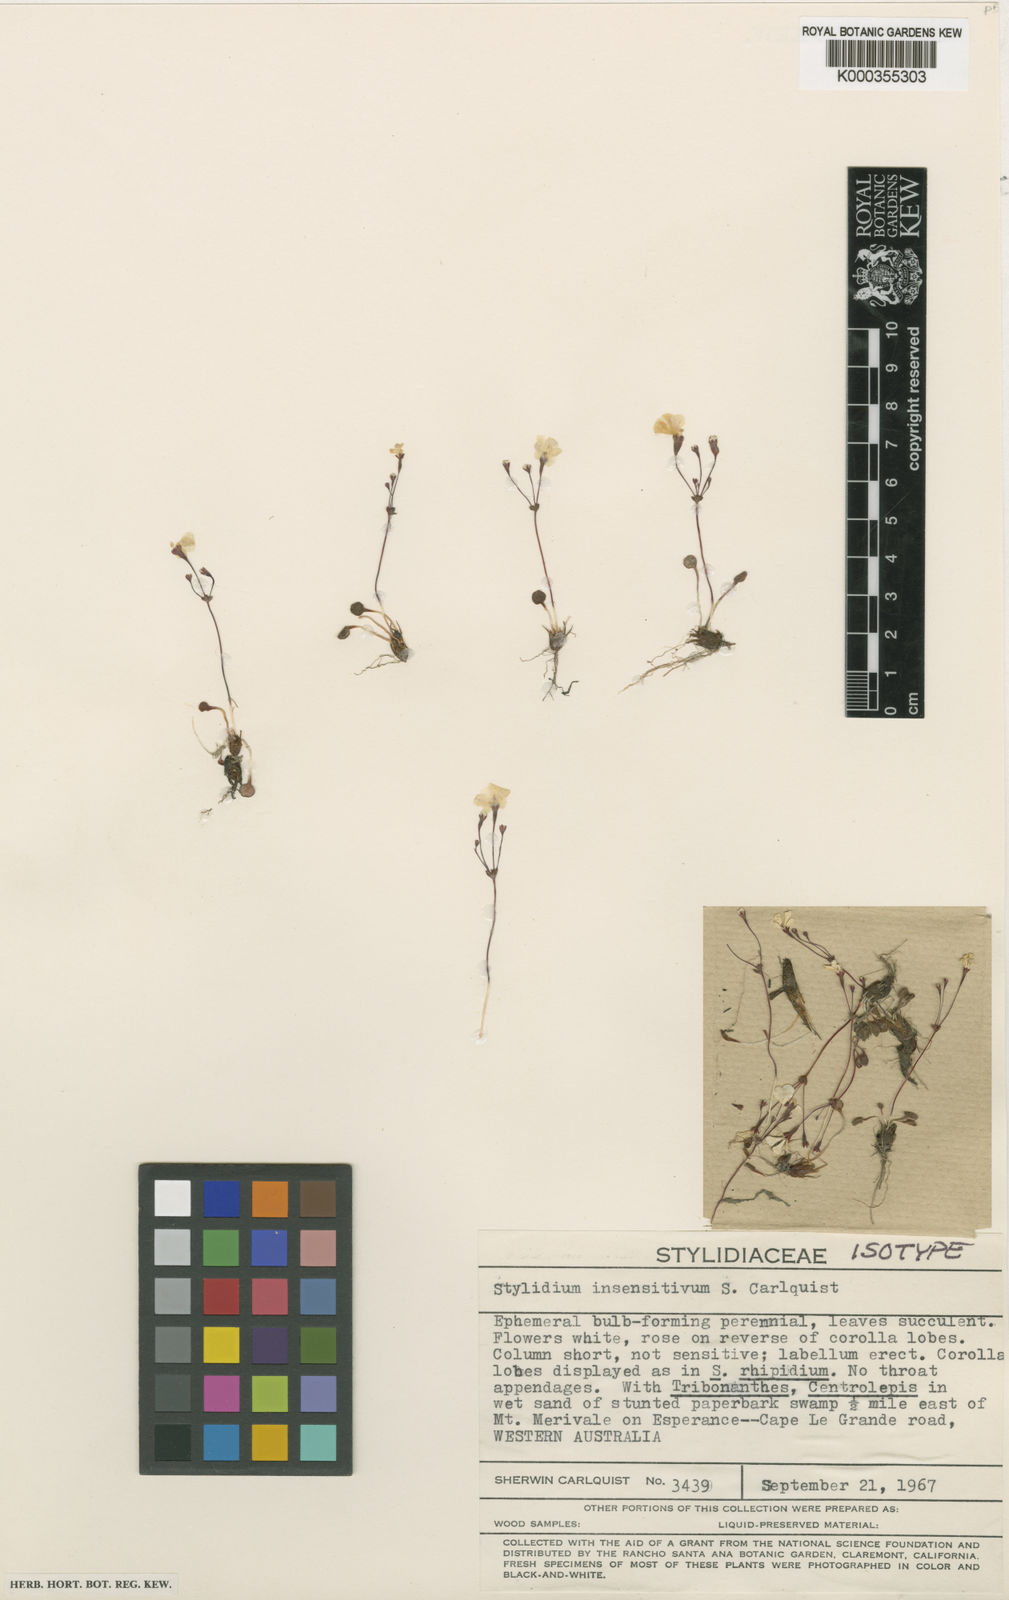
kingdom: Plantae
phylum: Tracheophyta
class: Magnoliopsida
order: Asterales
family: Stylidiaceae
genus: Stylidium
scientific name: Stylidium insensitivum
